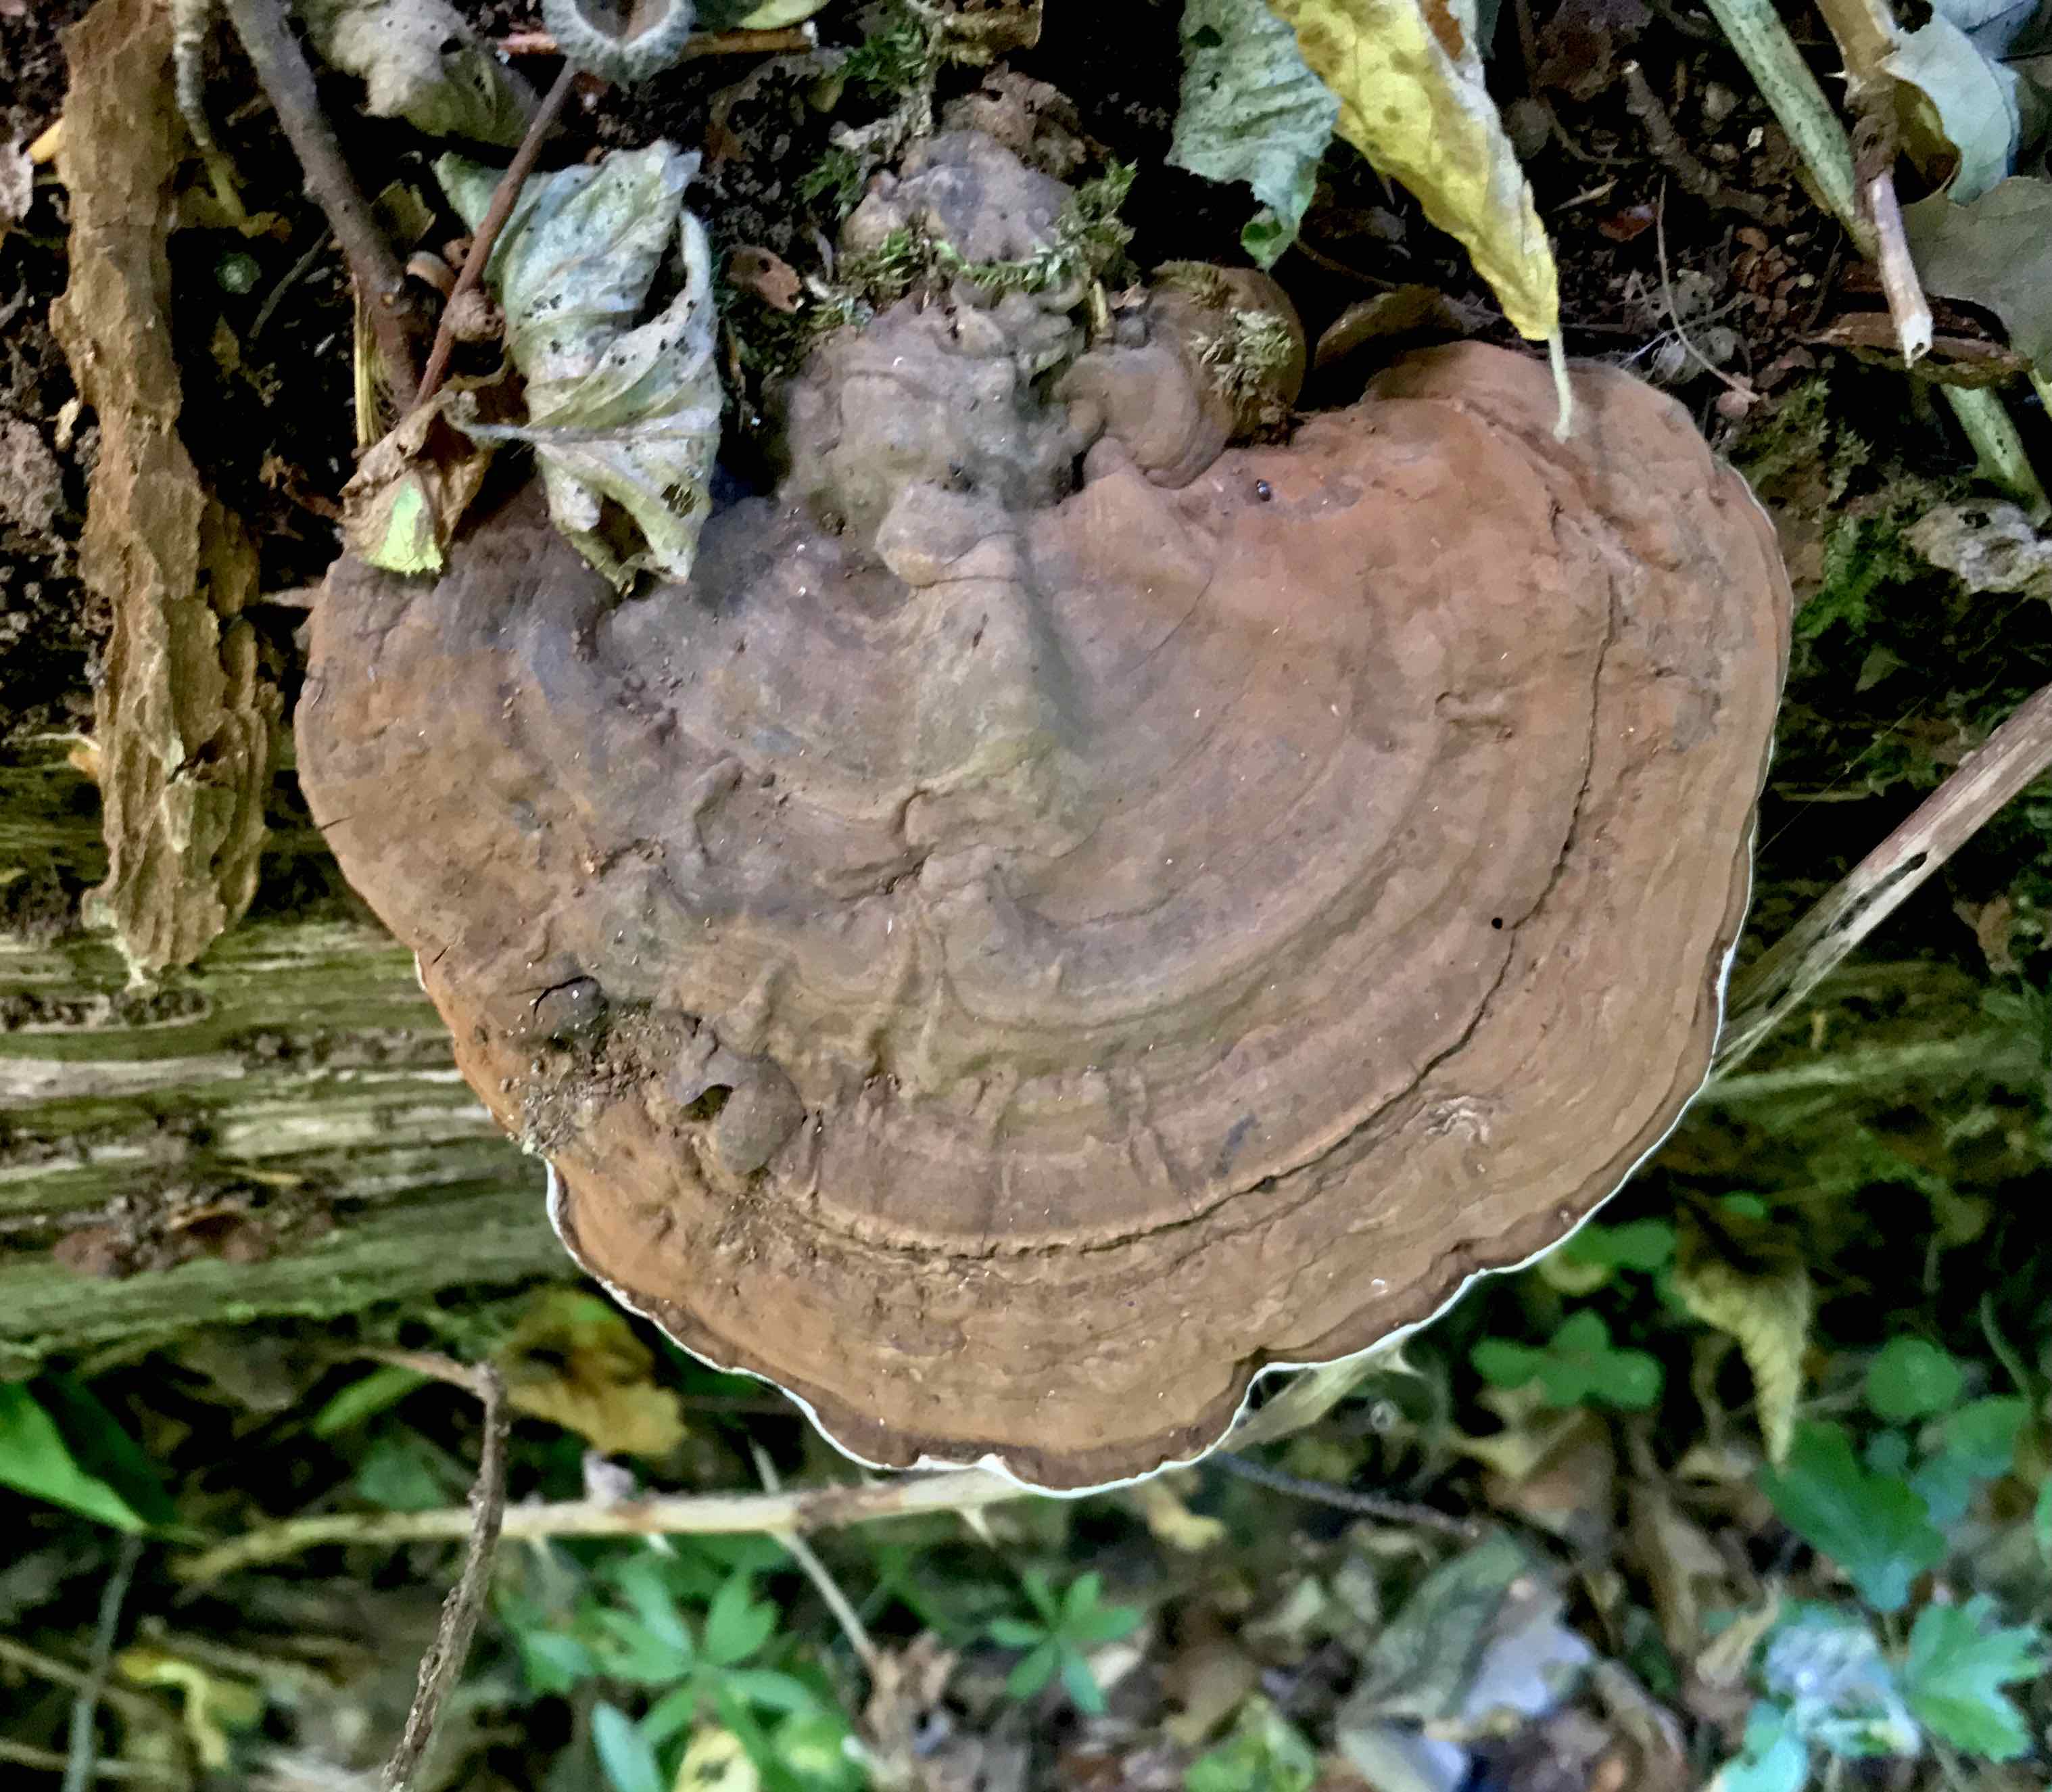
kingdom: Fungi
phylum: Basidiomycota
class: Agaricomycetes
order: Polyporales
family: Polyporaceae
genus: Ganoderma
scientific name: Ganoderma applanatum
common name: flad lakporesvamp
